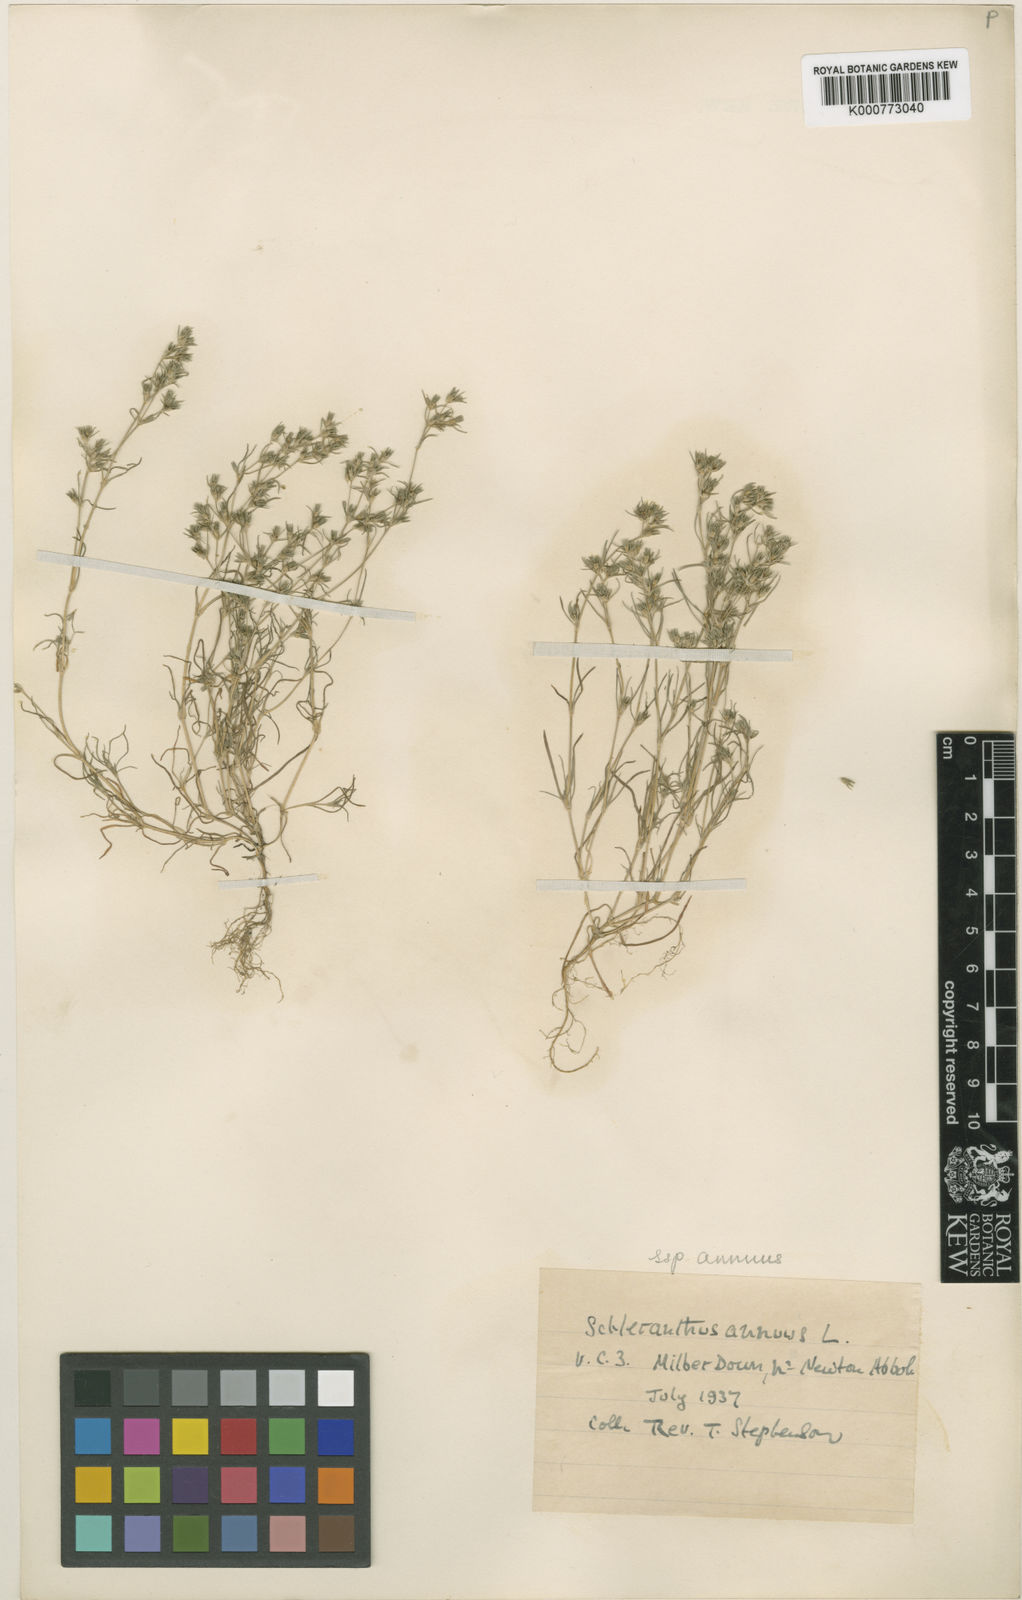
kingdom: Plantae
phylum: Tracheophyta
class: Magnoliopsida
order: Caryophyllales
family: Caryophyllaceae
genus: Scleranthus
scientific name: Scleranthus annuus
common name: Annual knawel
